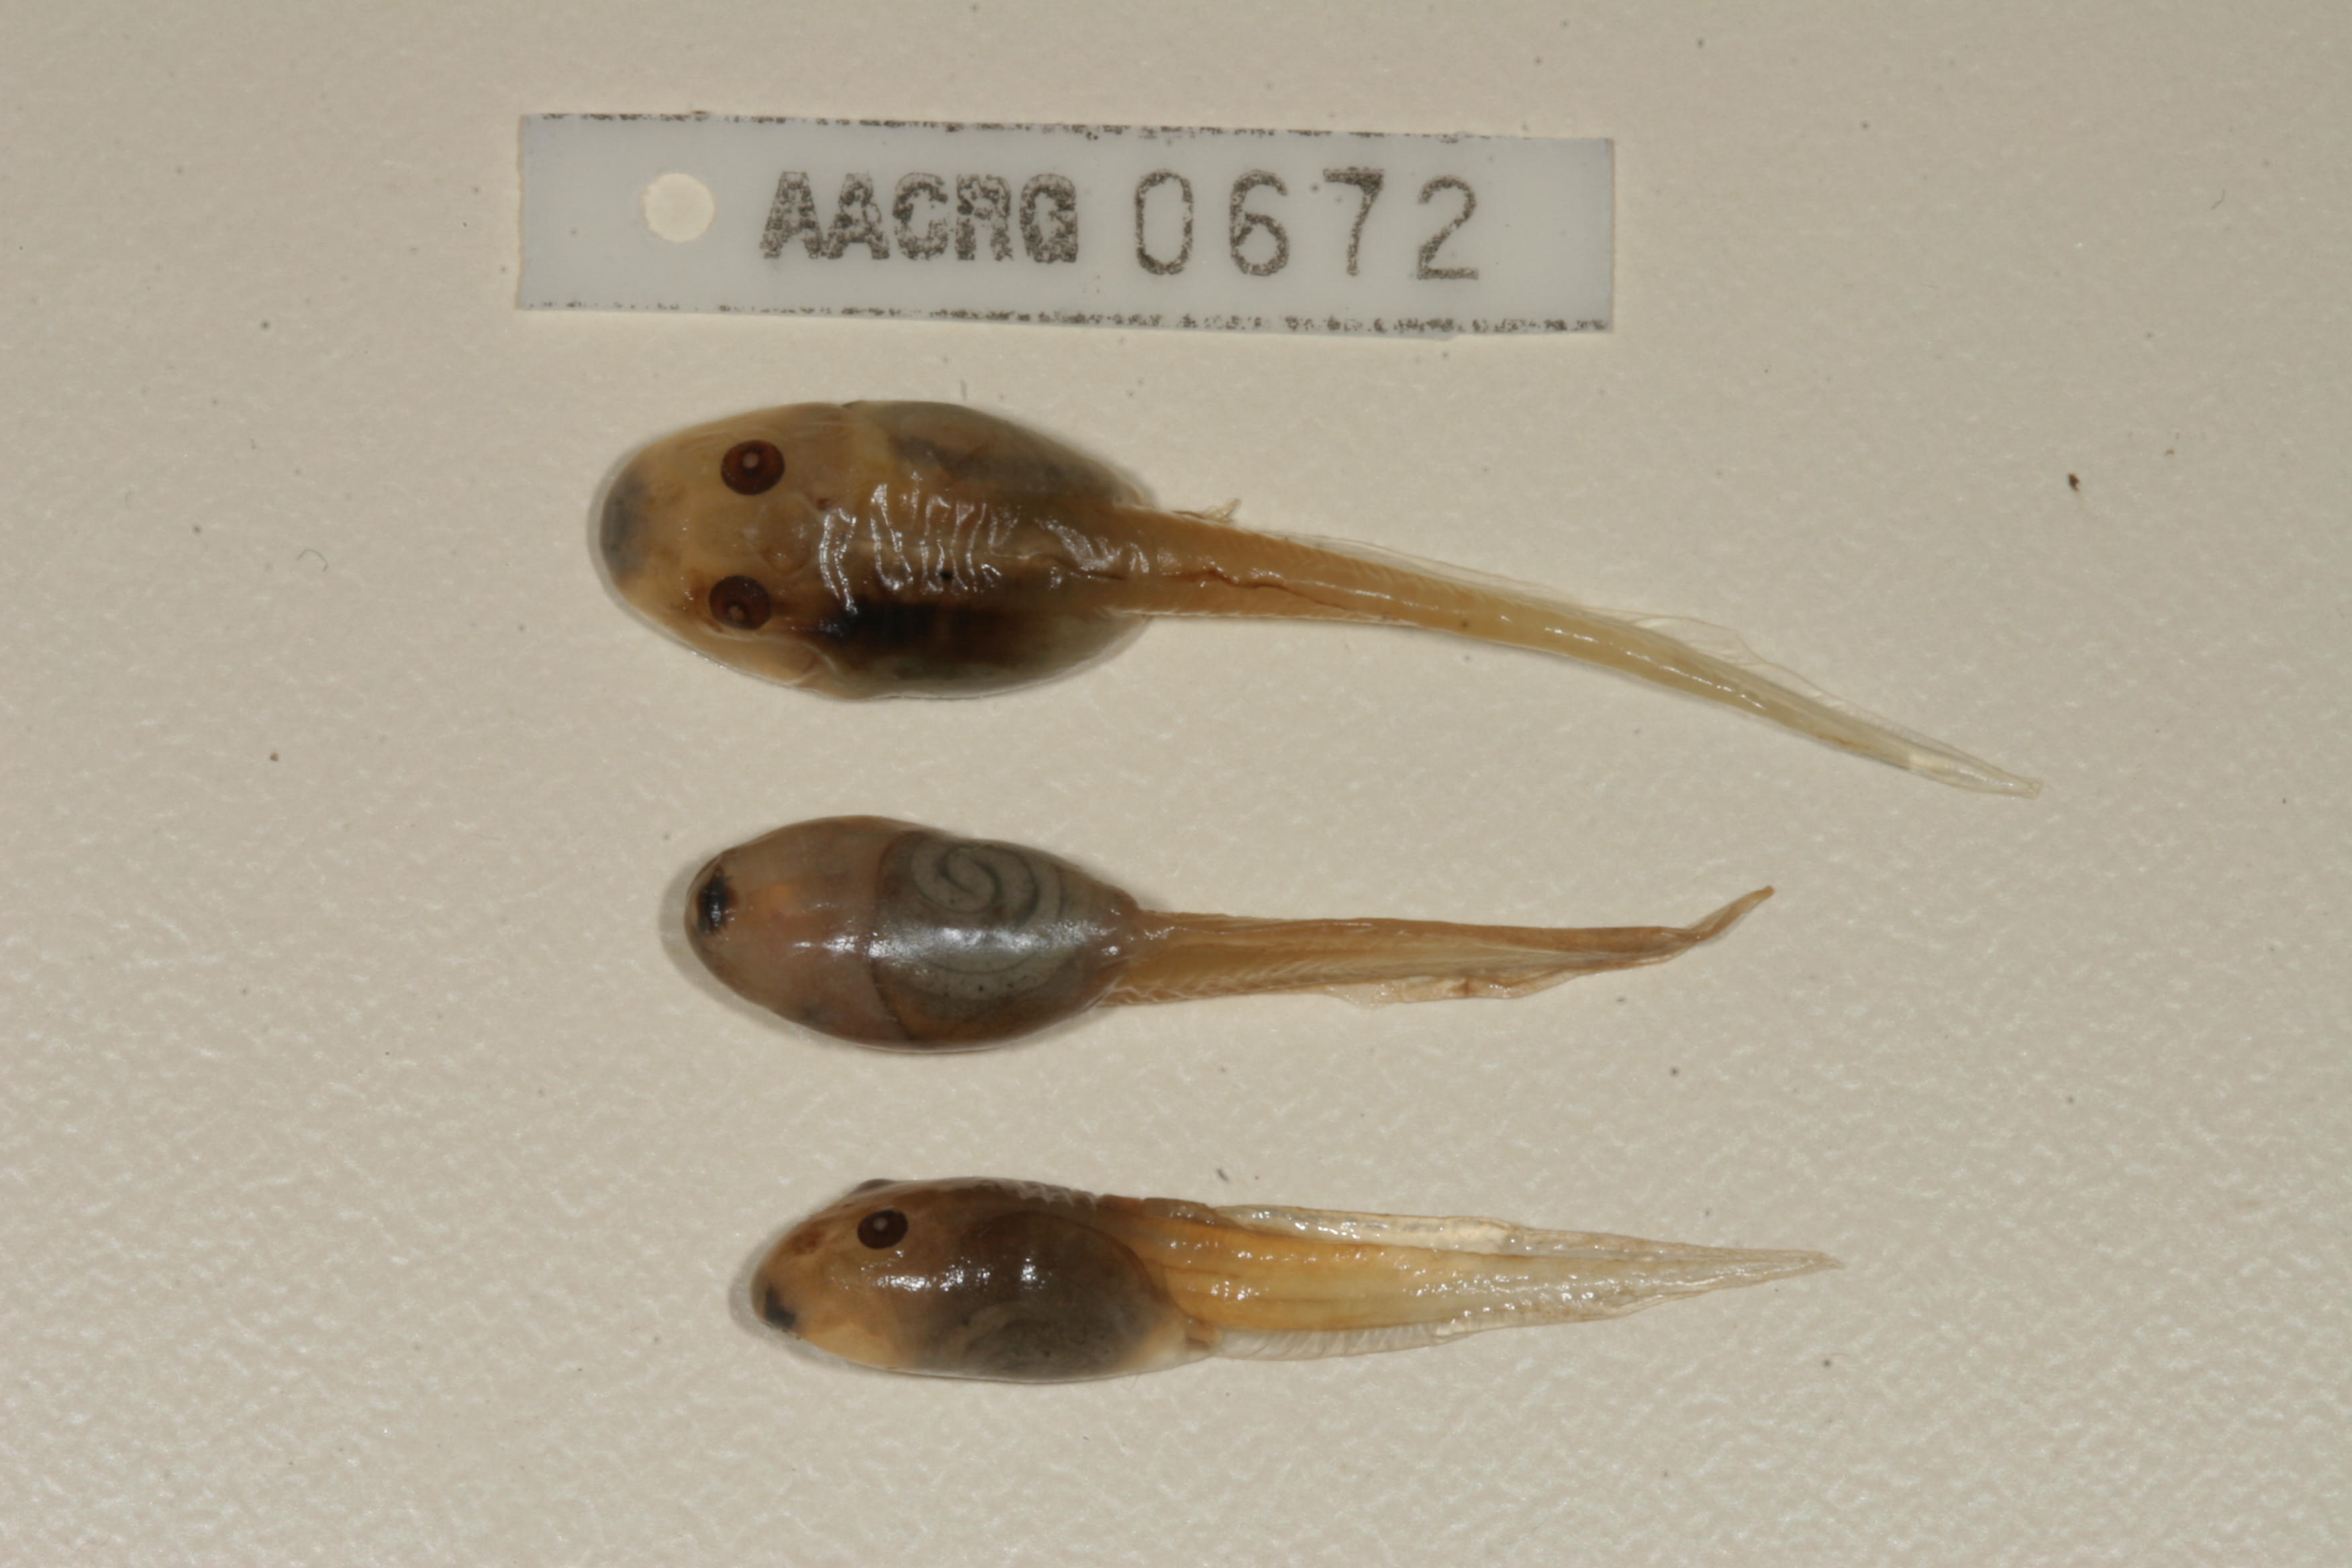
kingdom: Animalia
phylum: Chordata
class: Amphibia
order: Anura
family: Pyxicephalidae
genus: Strongylopus
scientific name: Strongylopus grayii
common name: Gray's stream frog
